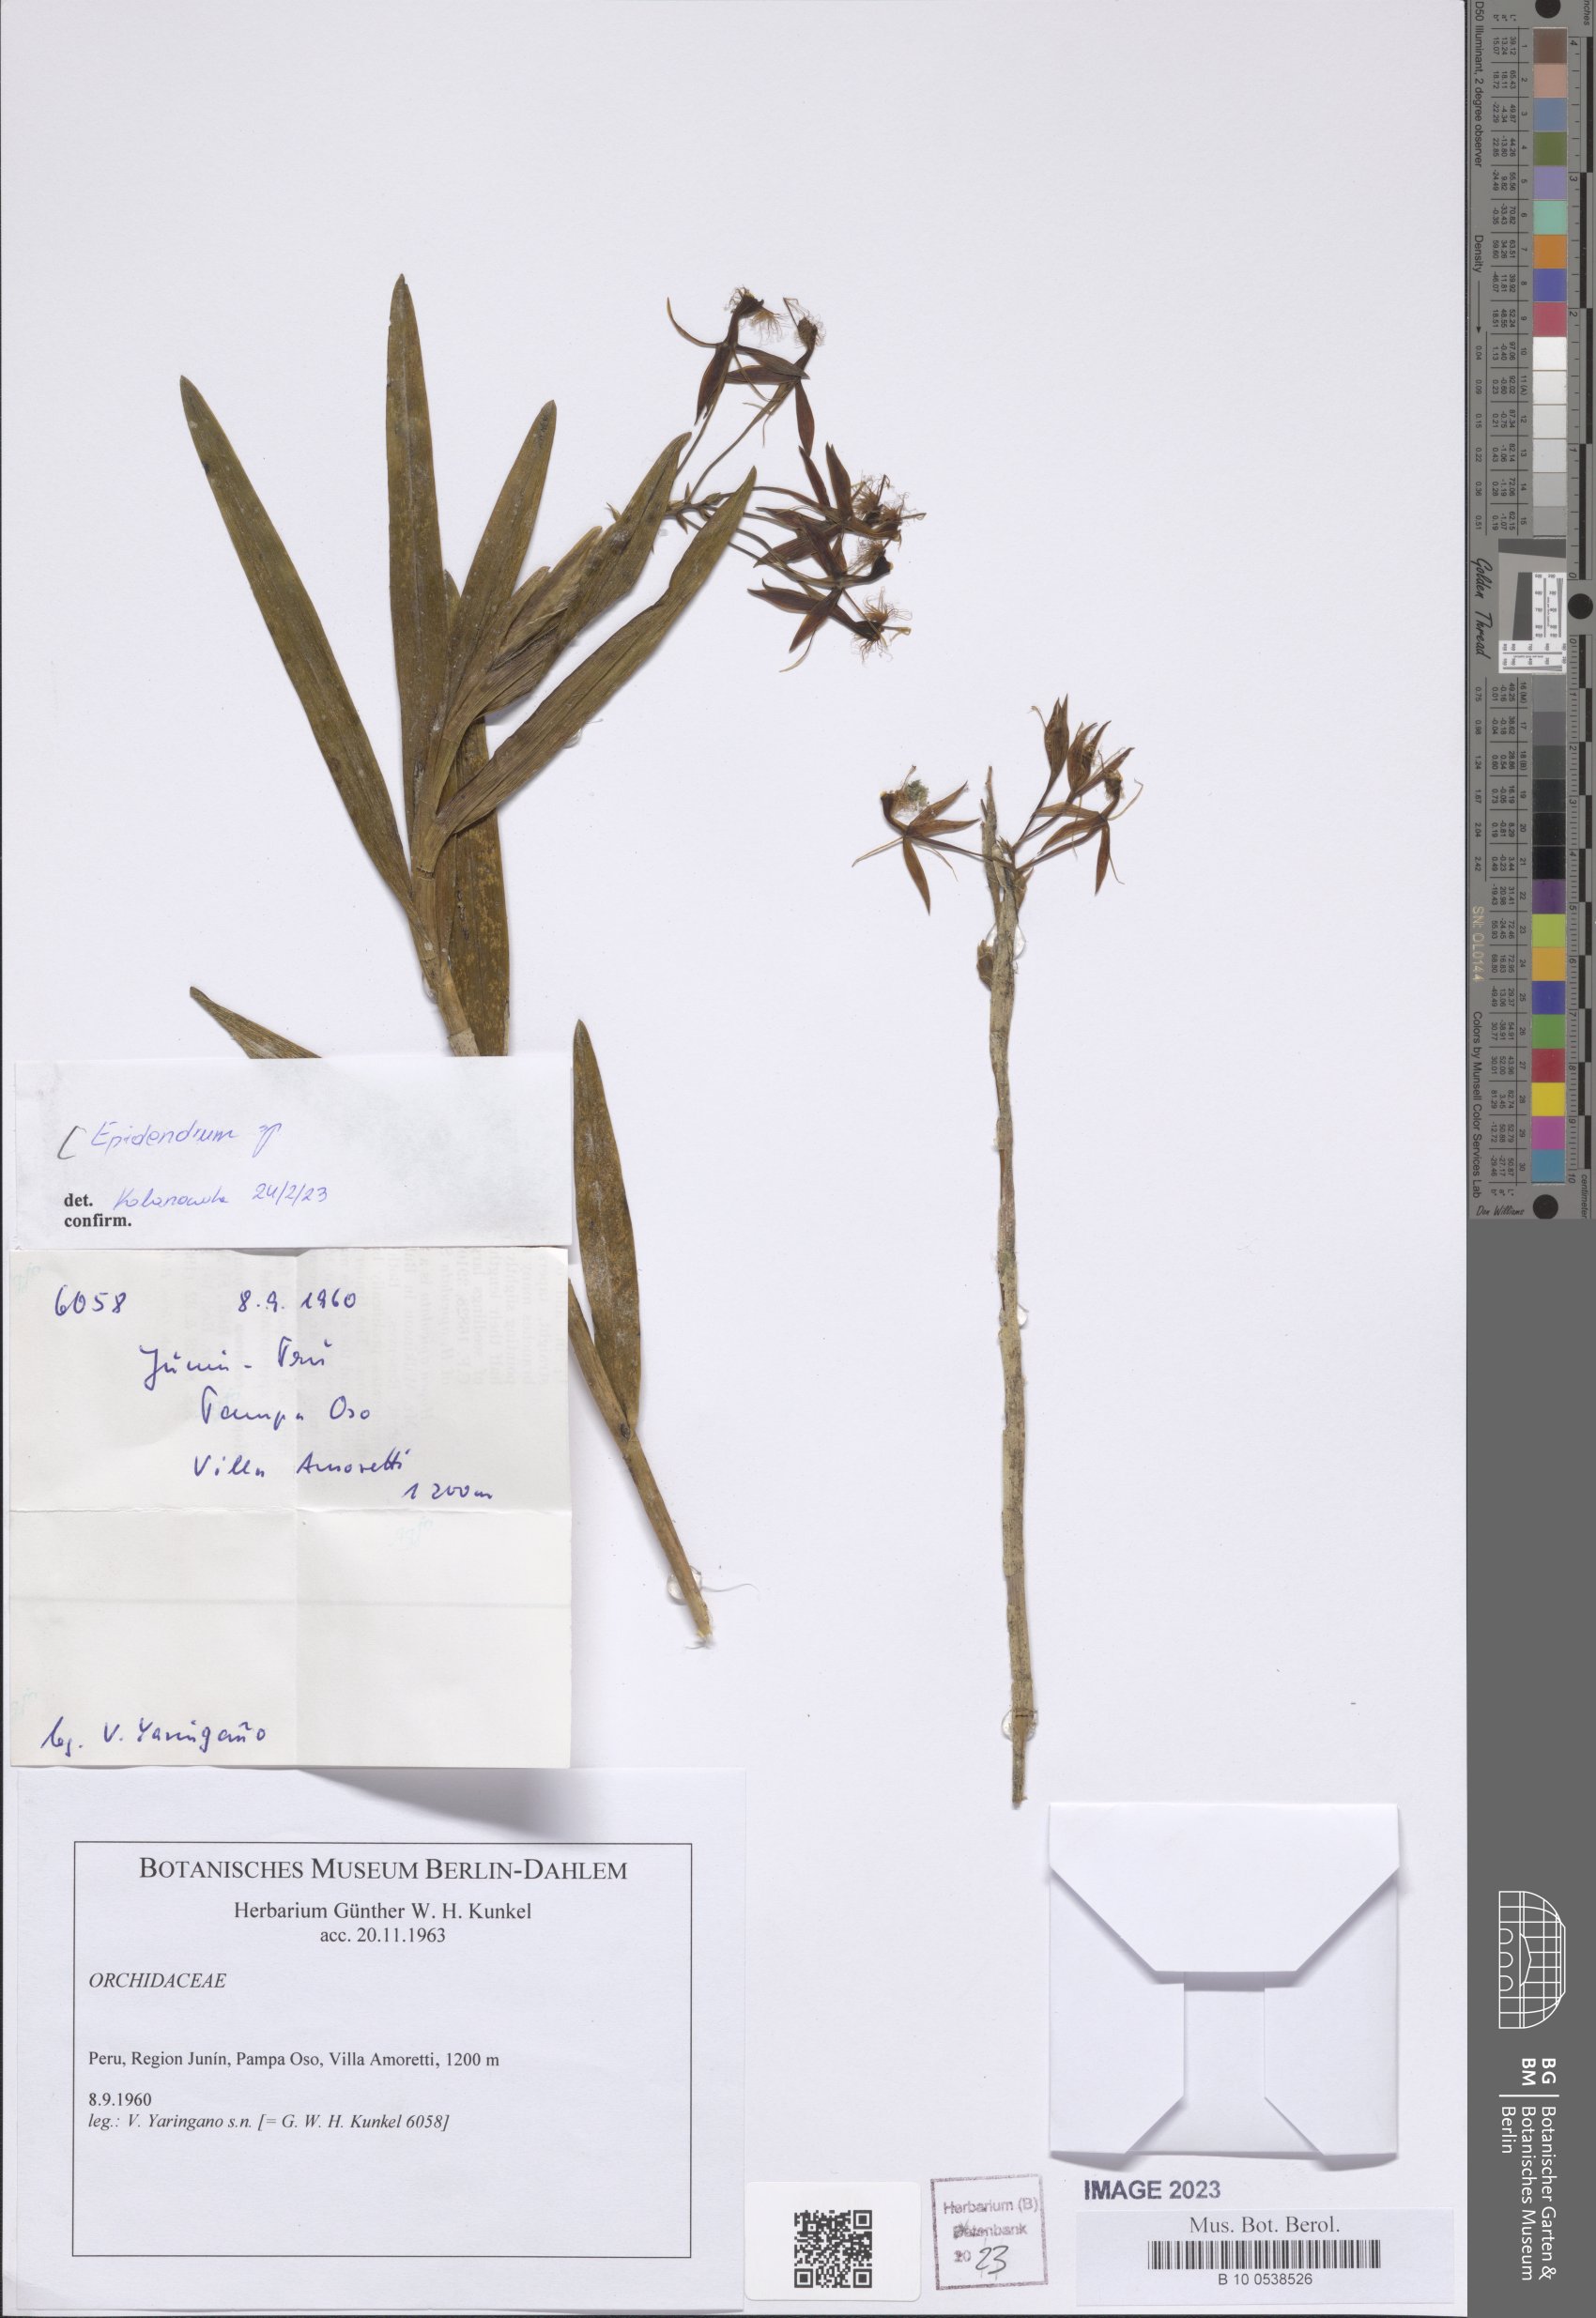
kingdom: Plantae
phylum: Tracheophyta
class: Liliopsida
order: Asparagales
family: Orchidaceae
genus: Epidendrum
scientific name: Epidendrum
